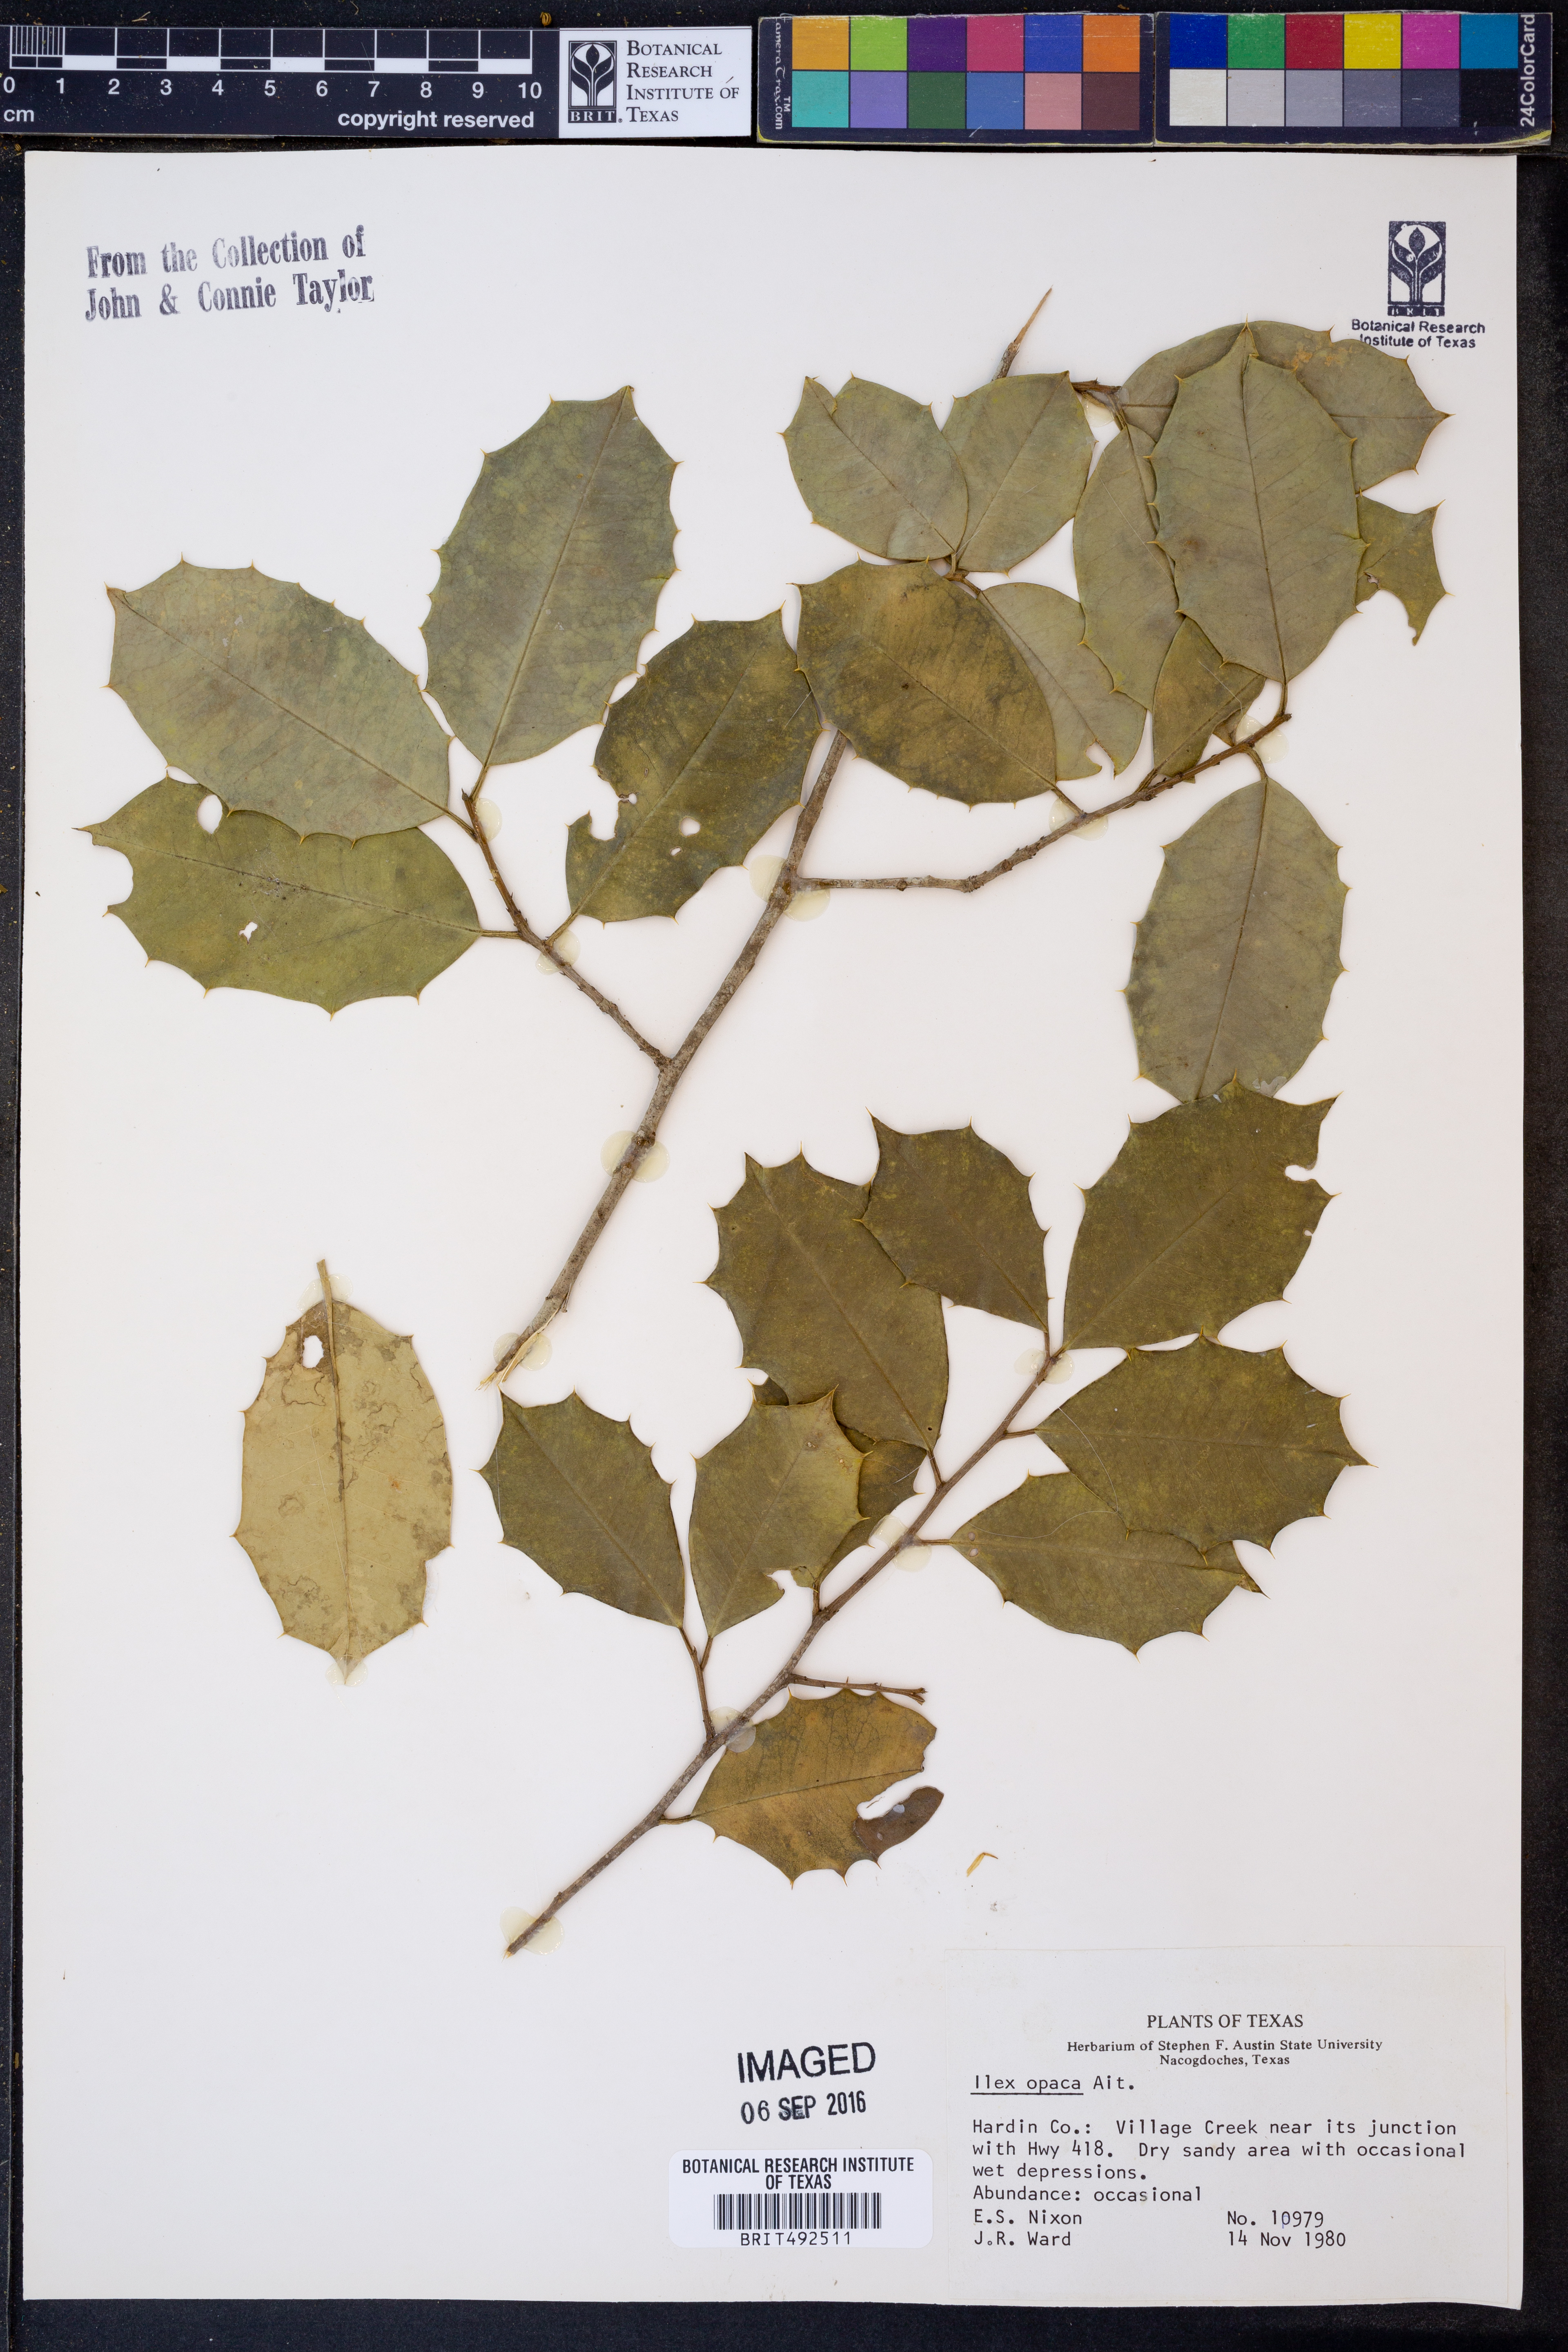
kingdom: Plantae
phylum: Tracheophyta
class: Magnoliopsida
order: Aquifoliales
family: Aquifoliaceae
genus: Ilex
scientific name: Ilex opaca
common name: American holly
